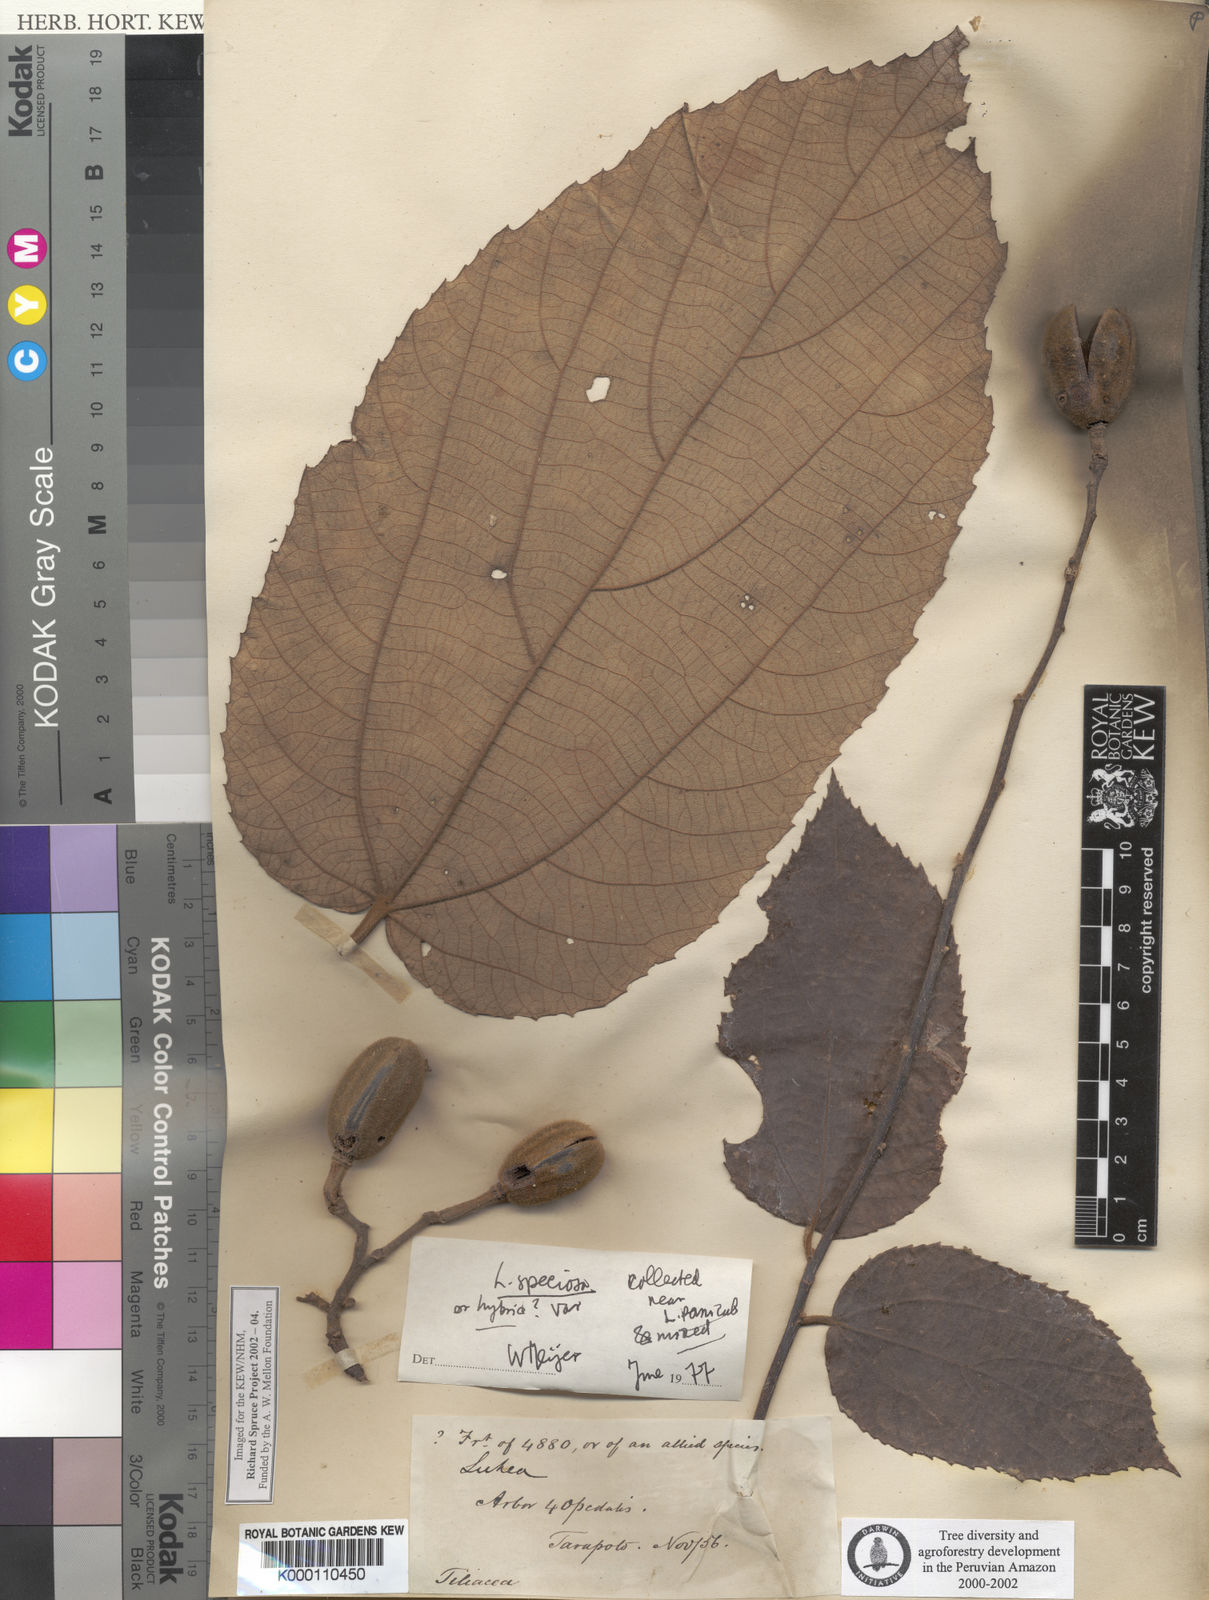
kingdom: Plantae
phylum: Tracheophyta
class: Magnoliopsida
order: Malvales
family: Malvaceae
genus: Luehea
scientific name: Luehea speciosa
